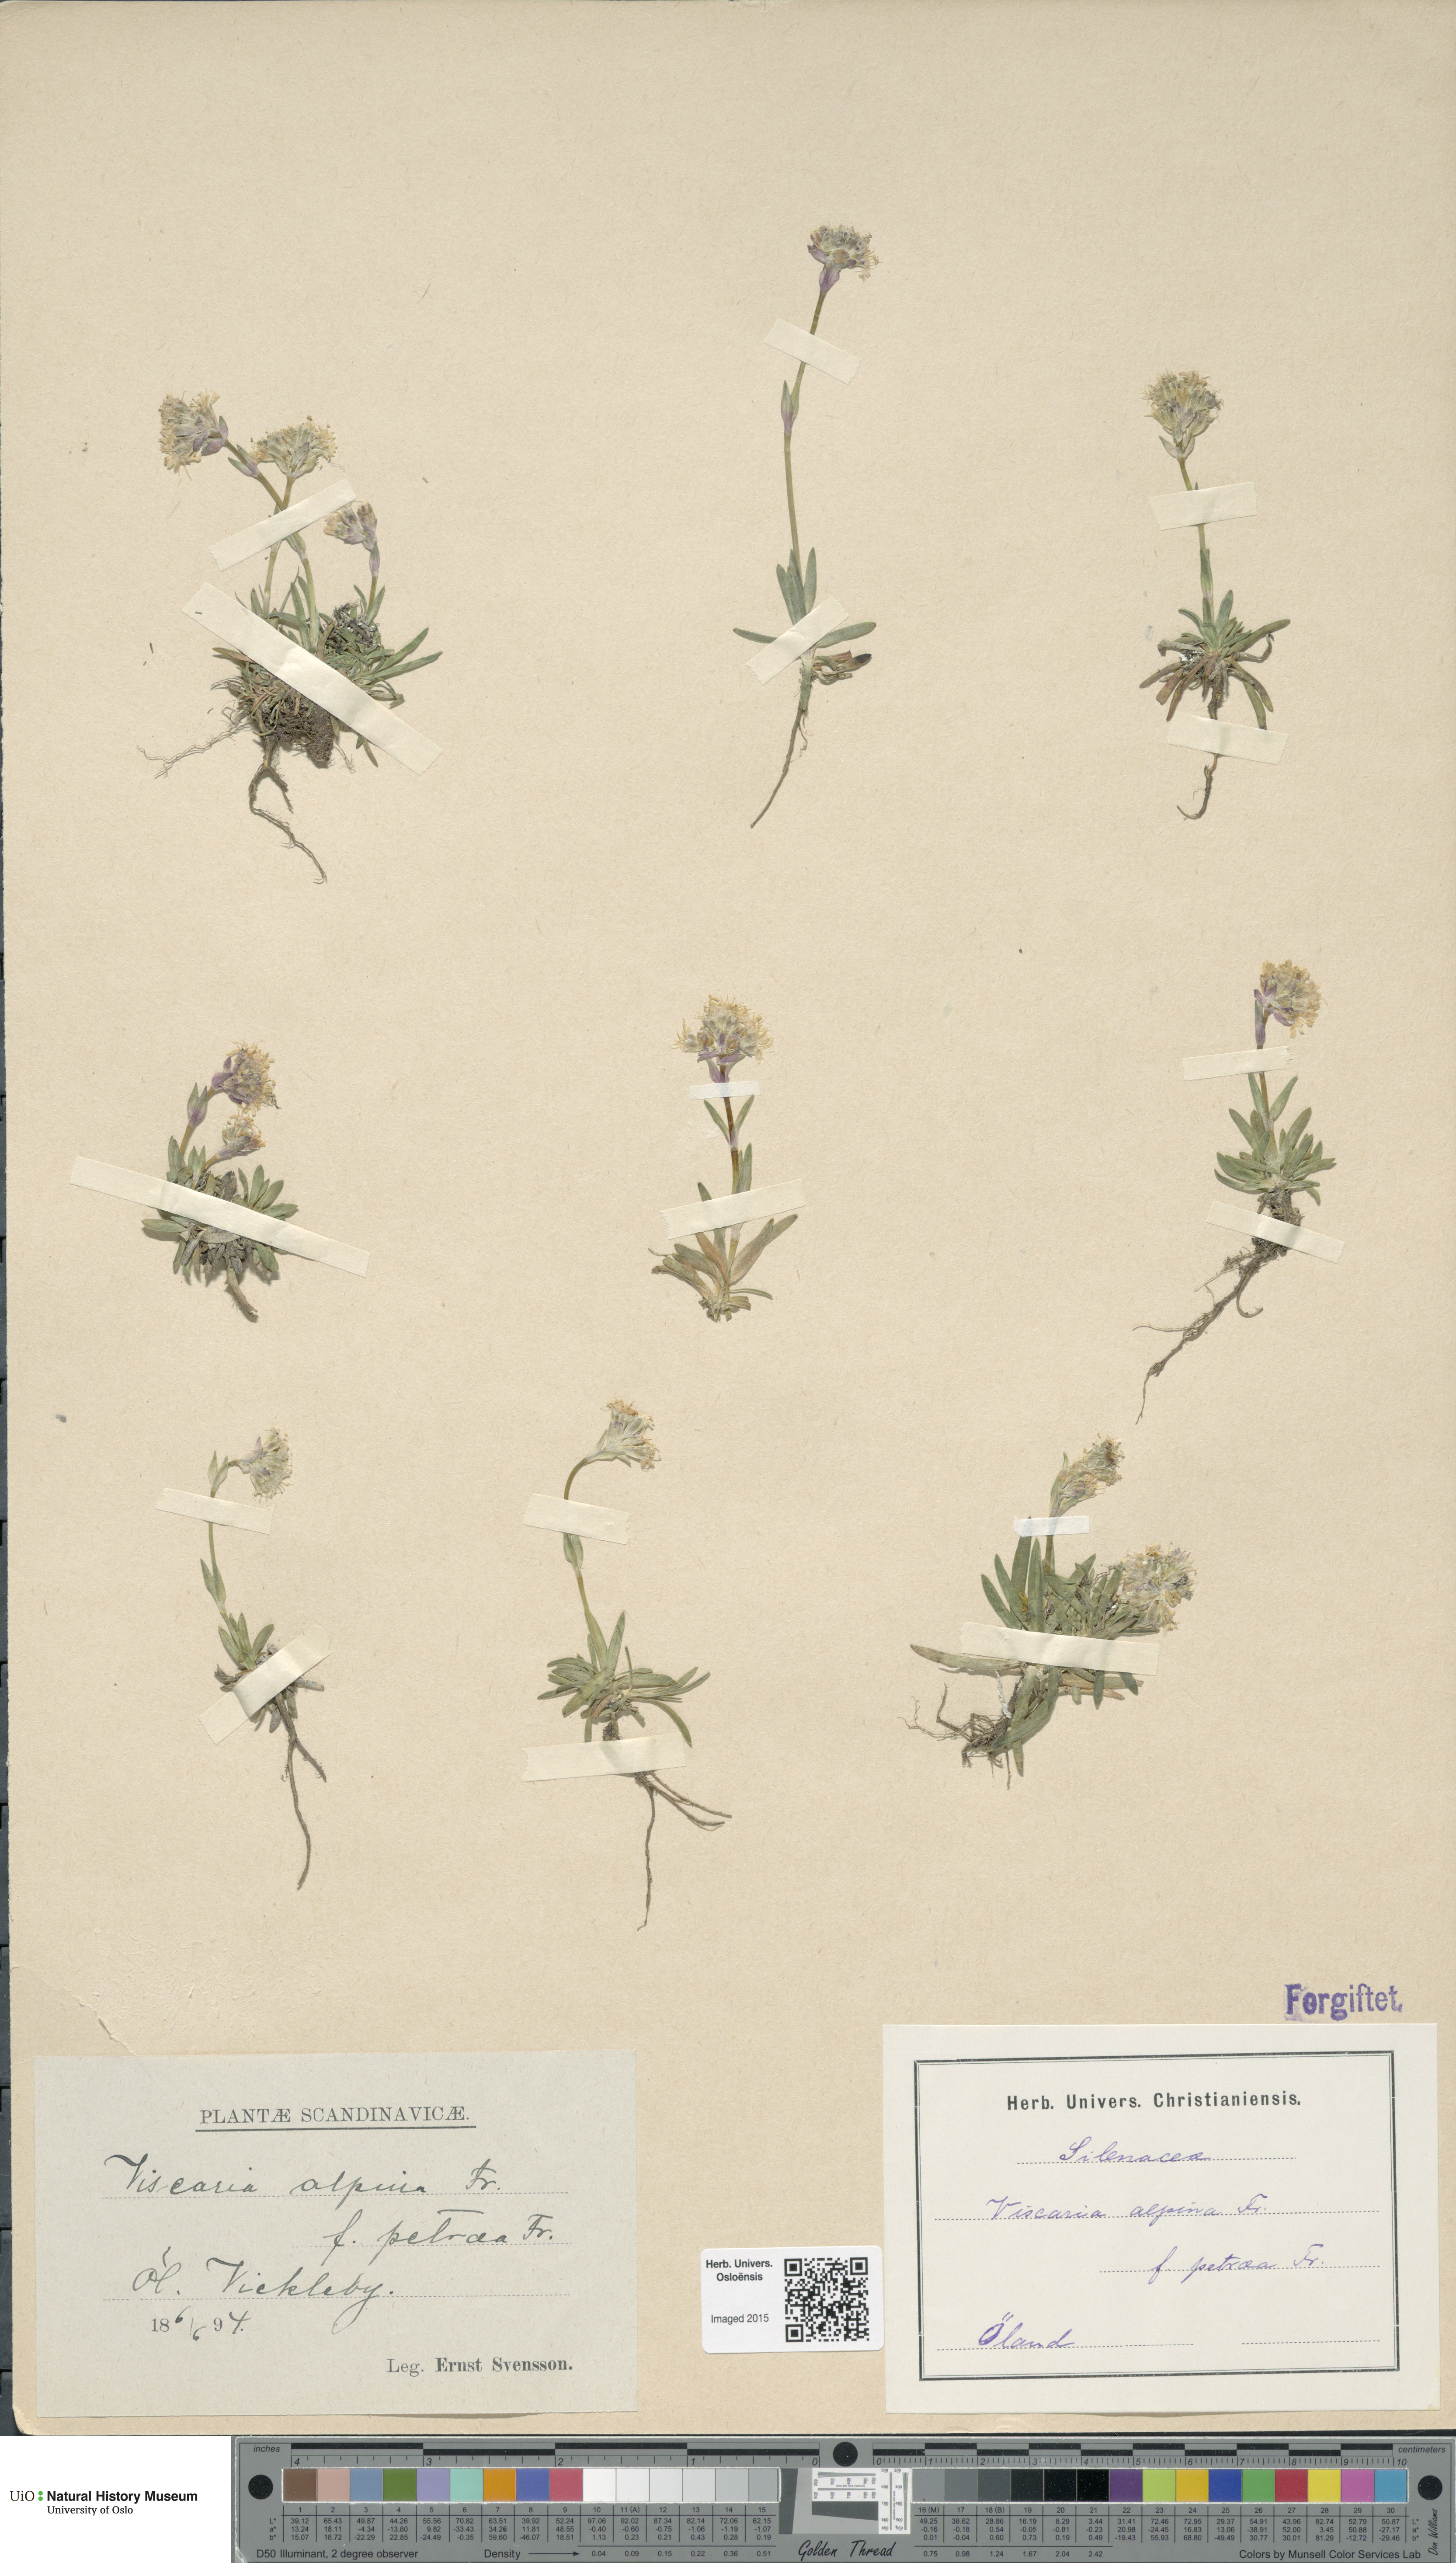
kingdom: Plantae
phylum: Tracheophyta
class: Magnoliopsida
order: Caryophyllales
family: Caryophyllaceae
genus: Viscaria
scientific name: Viscaria alpina
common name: Alpine campion
